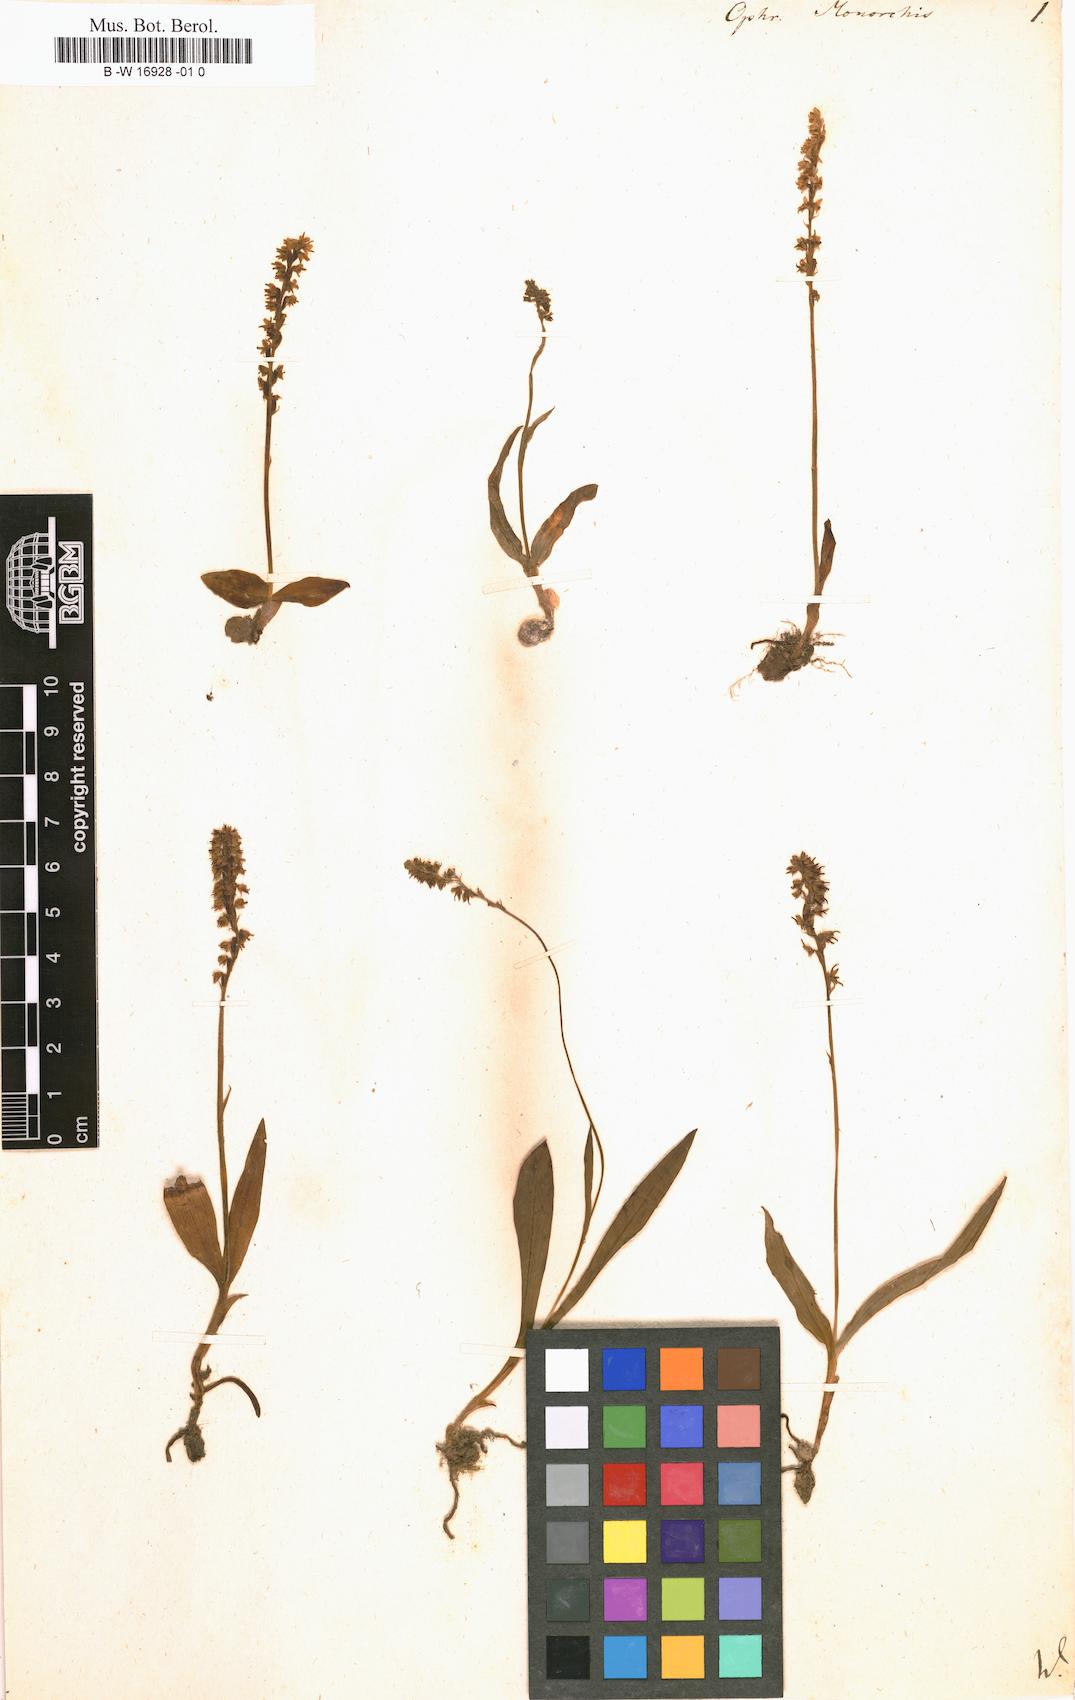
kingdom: Plantae
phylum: Tracheophyta
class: Liliopsida
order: Asparagales
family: Orchidaceae
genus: Herminium
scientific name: Herminium monorchis
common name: Musk orchid
